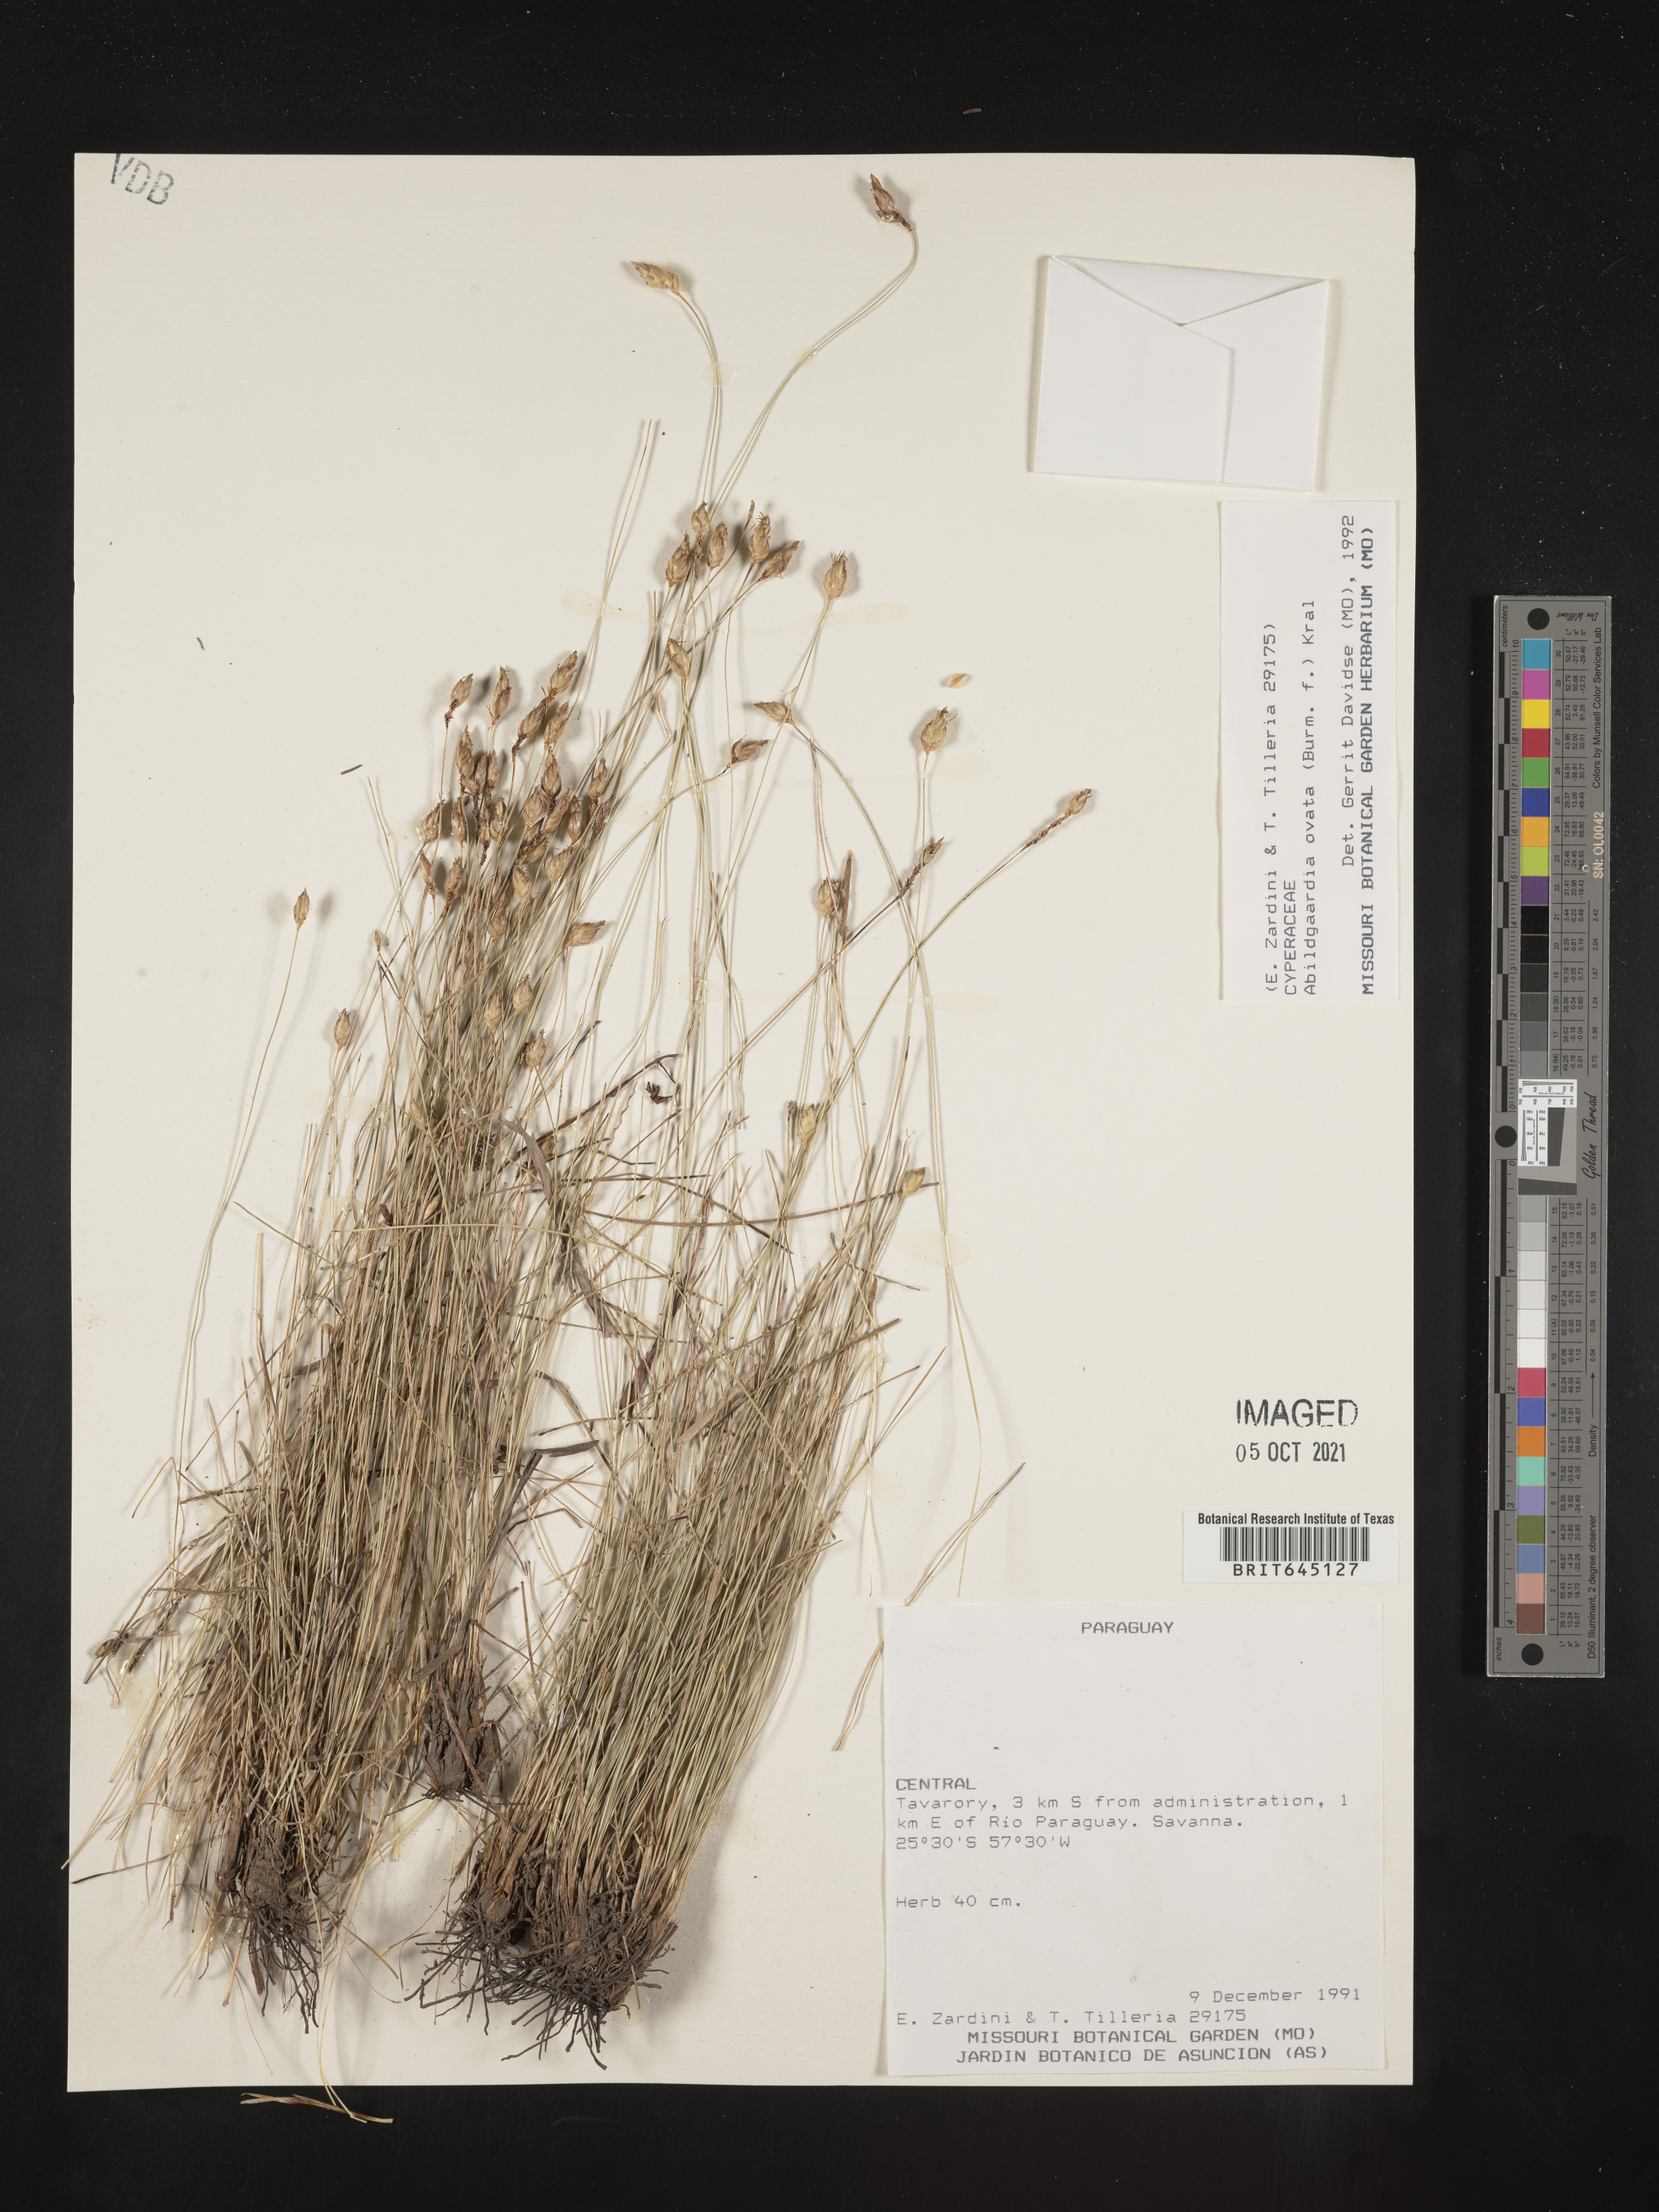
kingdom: Plantae
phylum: Tracheophyta
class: Liliopsida
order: Poales
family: Cyperaceae
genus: Abildgaardia
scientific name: Abildgaardia ovata
